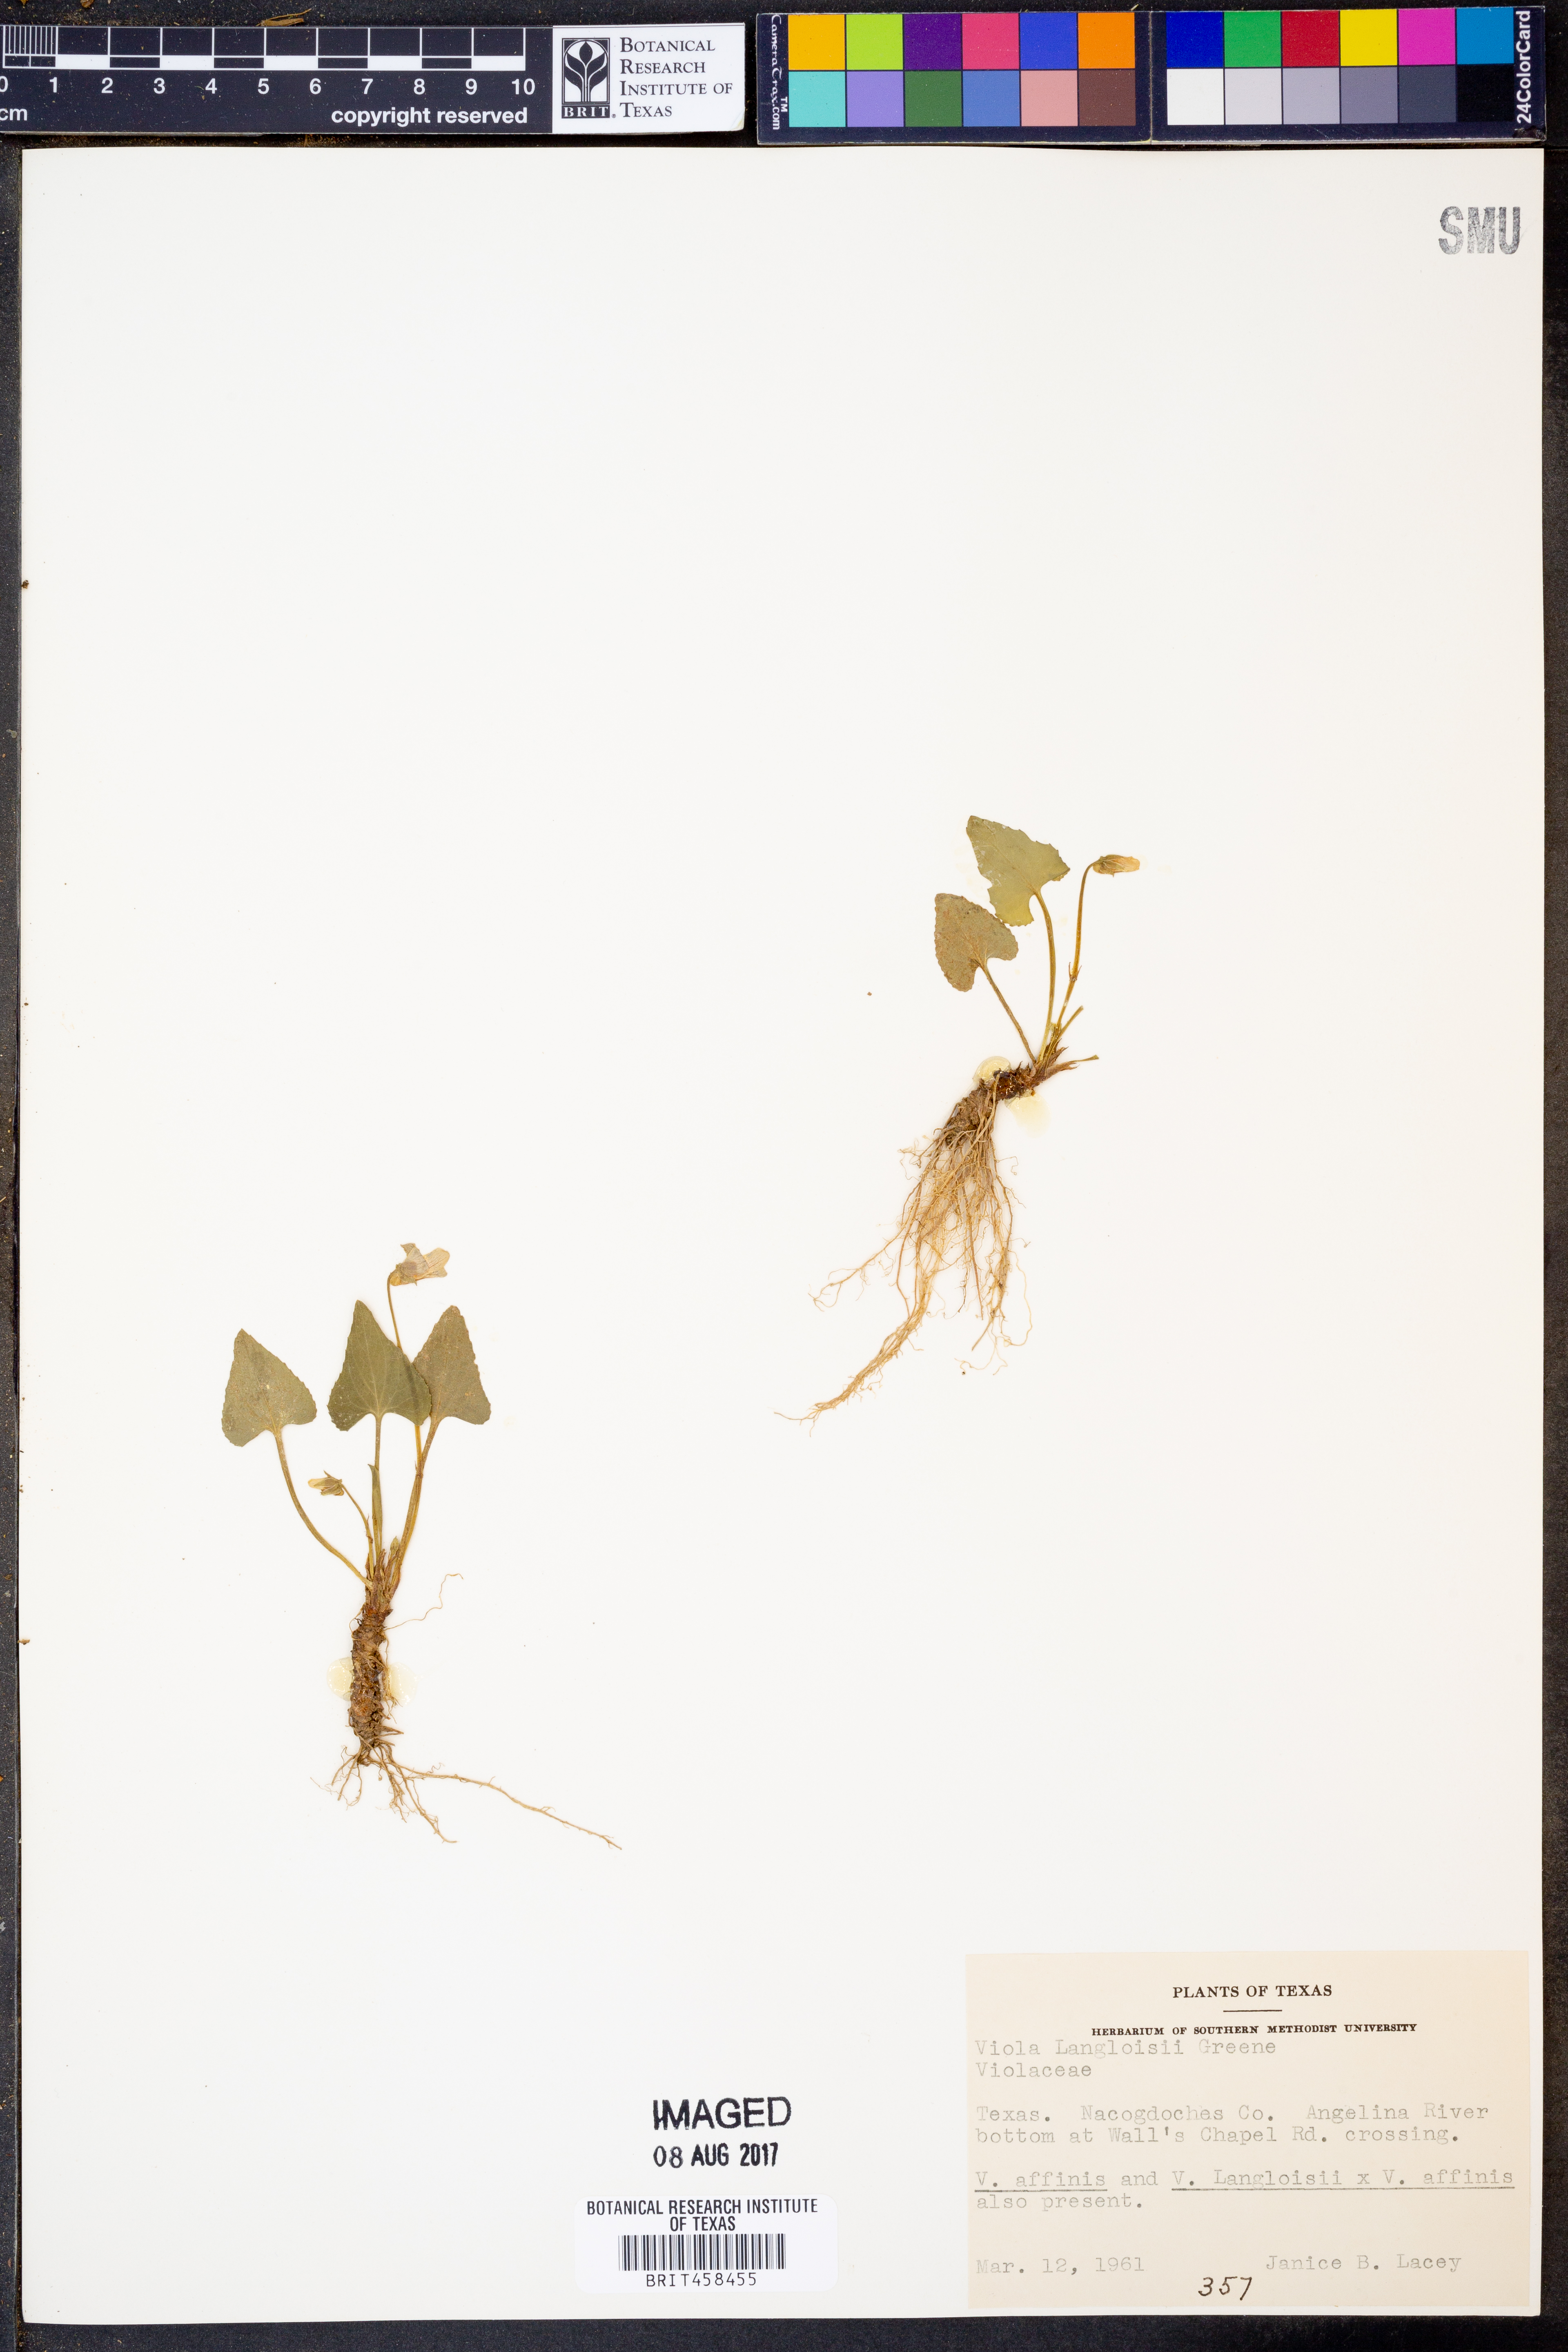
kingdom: Plantae
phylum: Tracheophyta
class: Magnoliopsida
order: Malpighiales
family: Violaceae
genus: Viola
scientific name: Viola langloisii
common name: Langlois' violet
